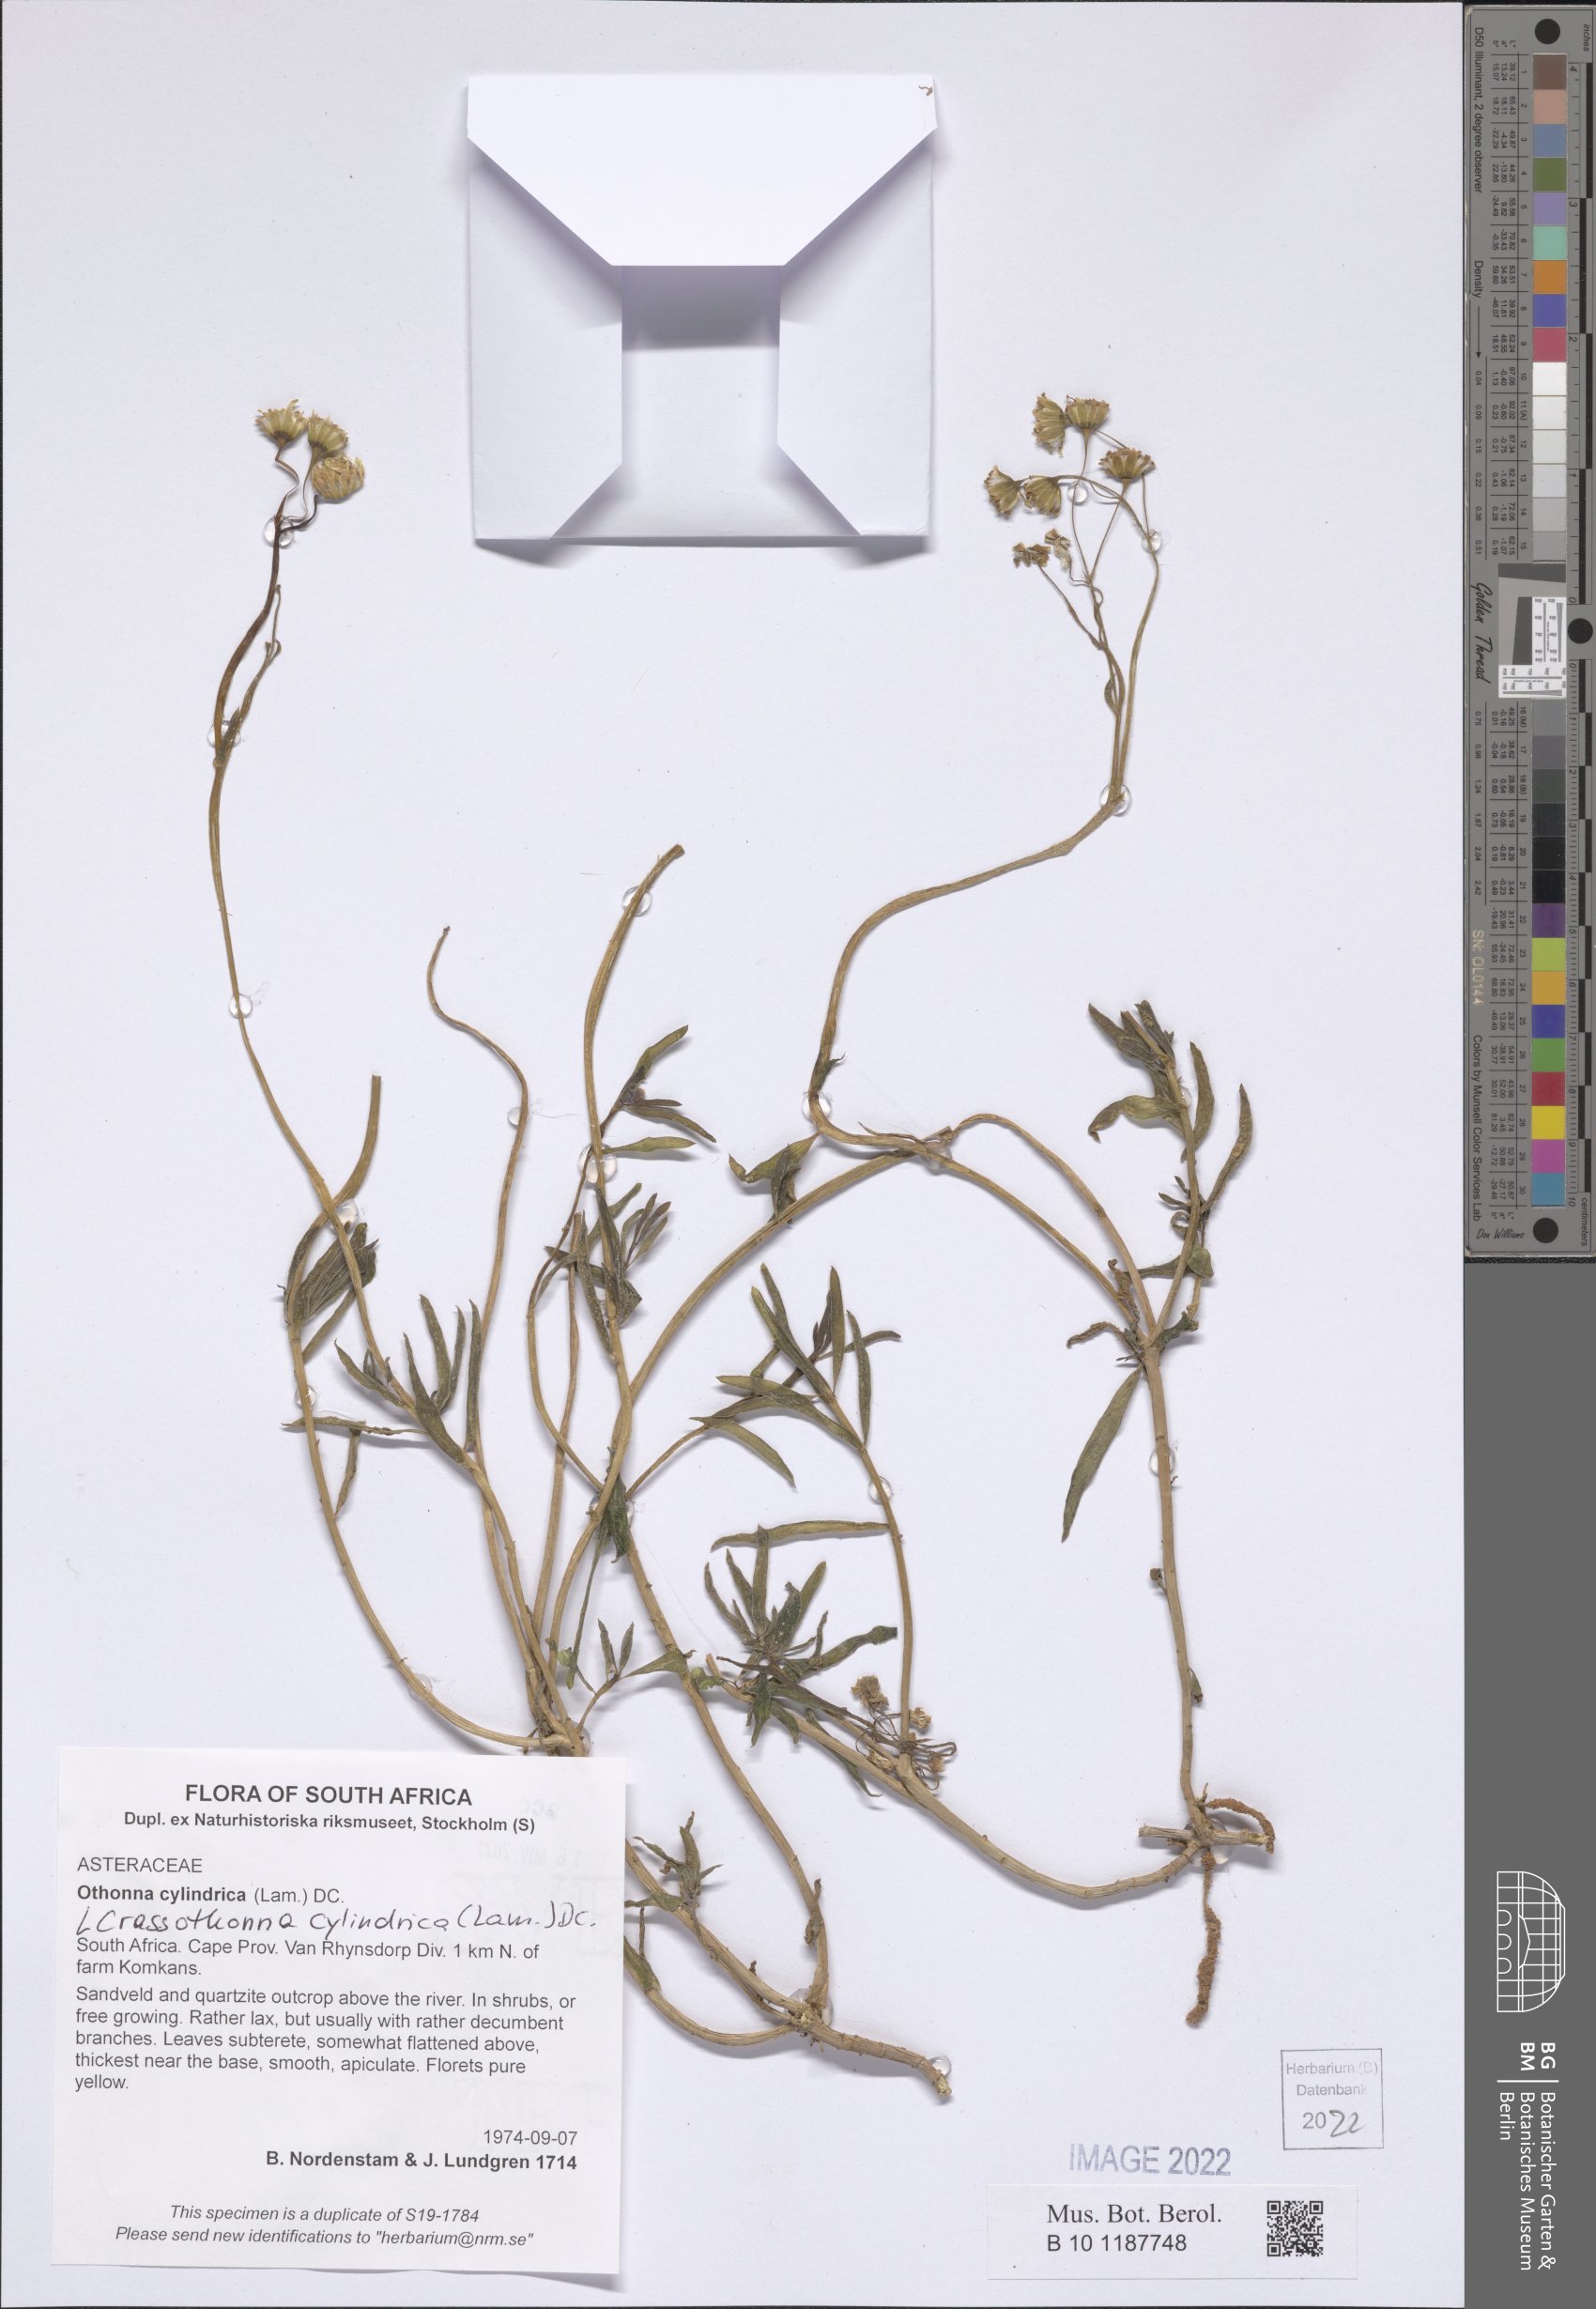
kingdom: Plantae
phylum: Tracheophyta
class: Magnoliopsida
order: Asterales
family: Asteraceae
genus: Crassothonna
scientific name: Crassothonna cylindrica
